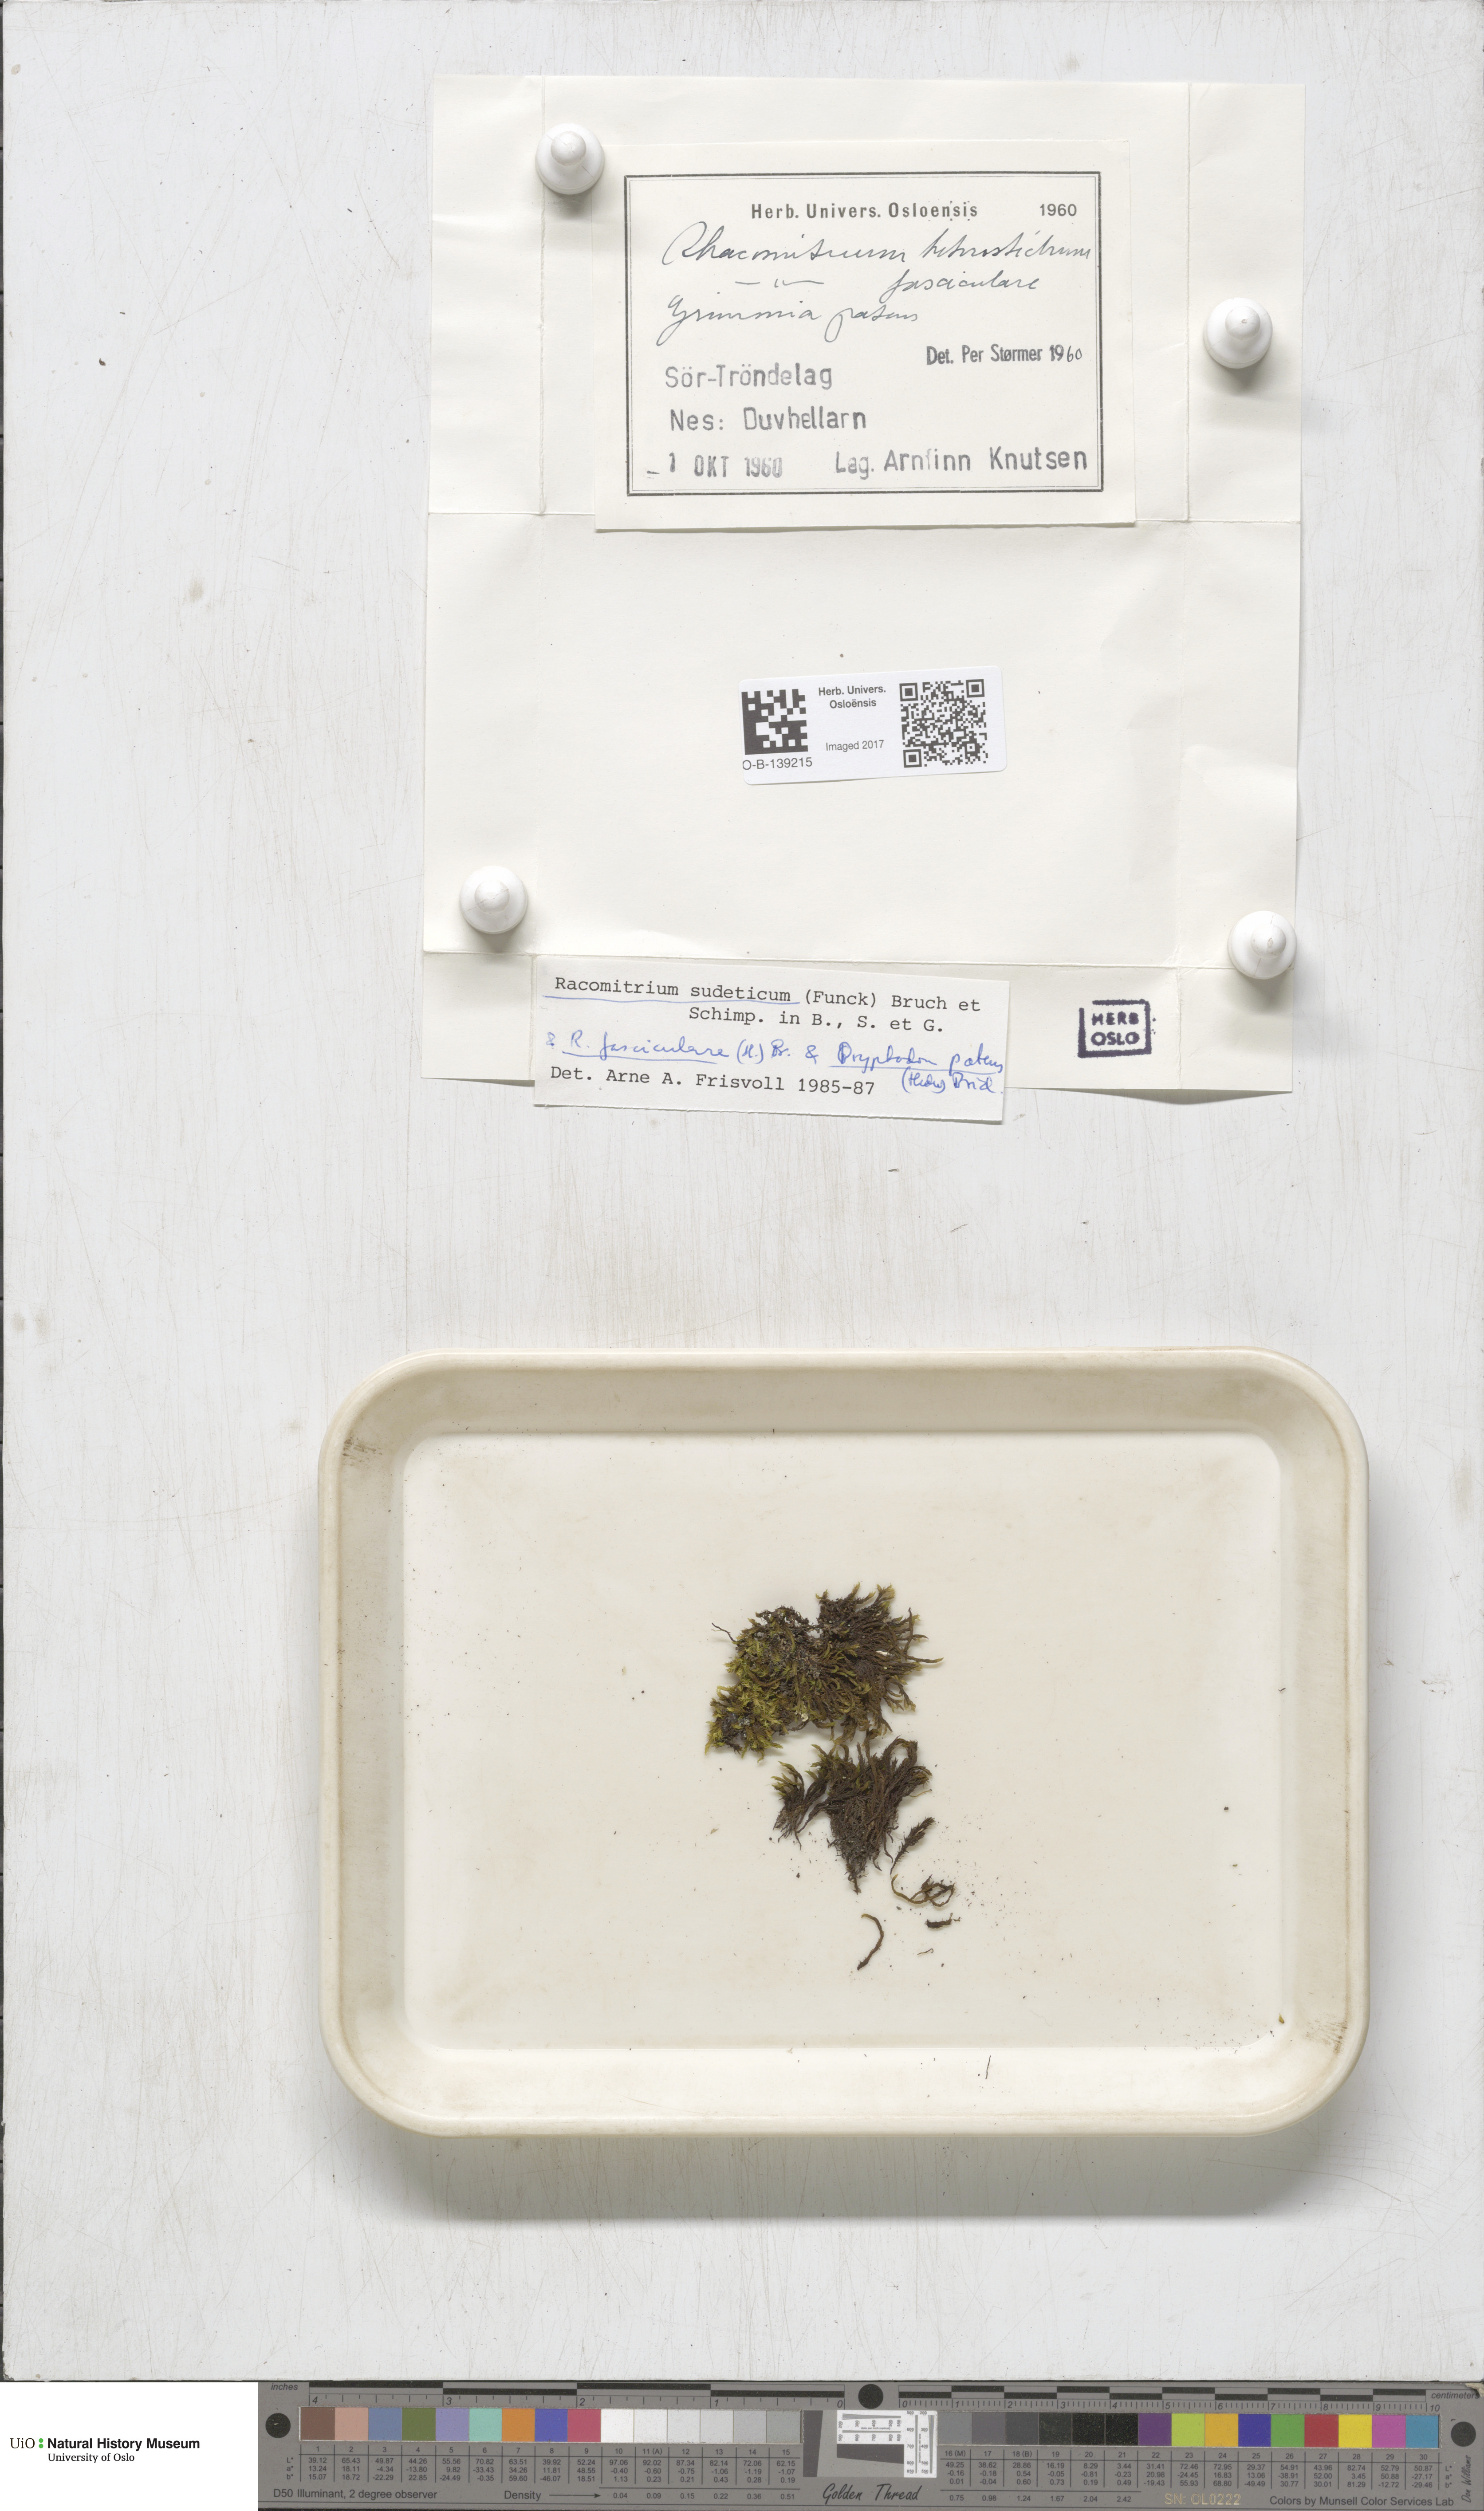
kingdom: Plantae
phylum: Bryophyta
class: Bryopsida
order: Grimmiales
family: Grimmiaceae
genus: Bucklandiella
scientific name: Bucklandiella sudetica
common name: Slender fringe-moss
